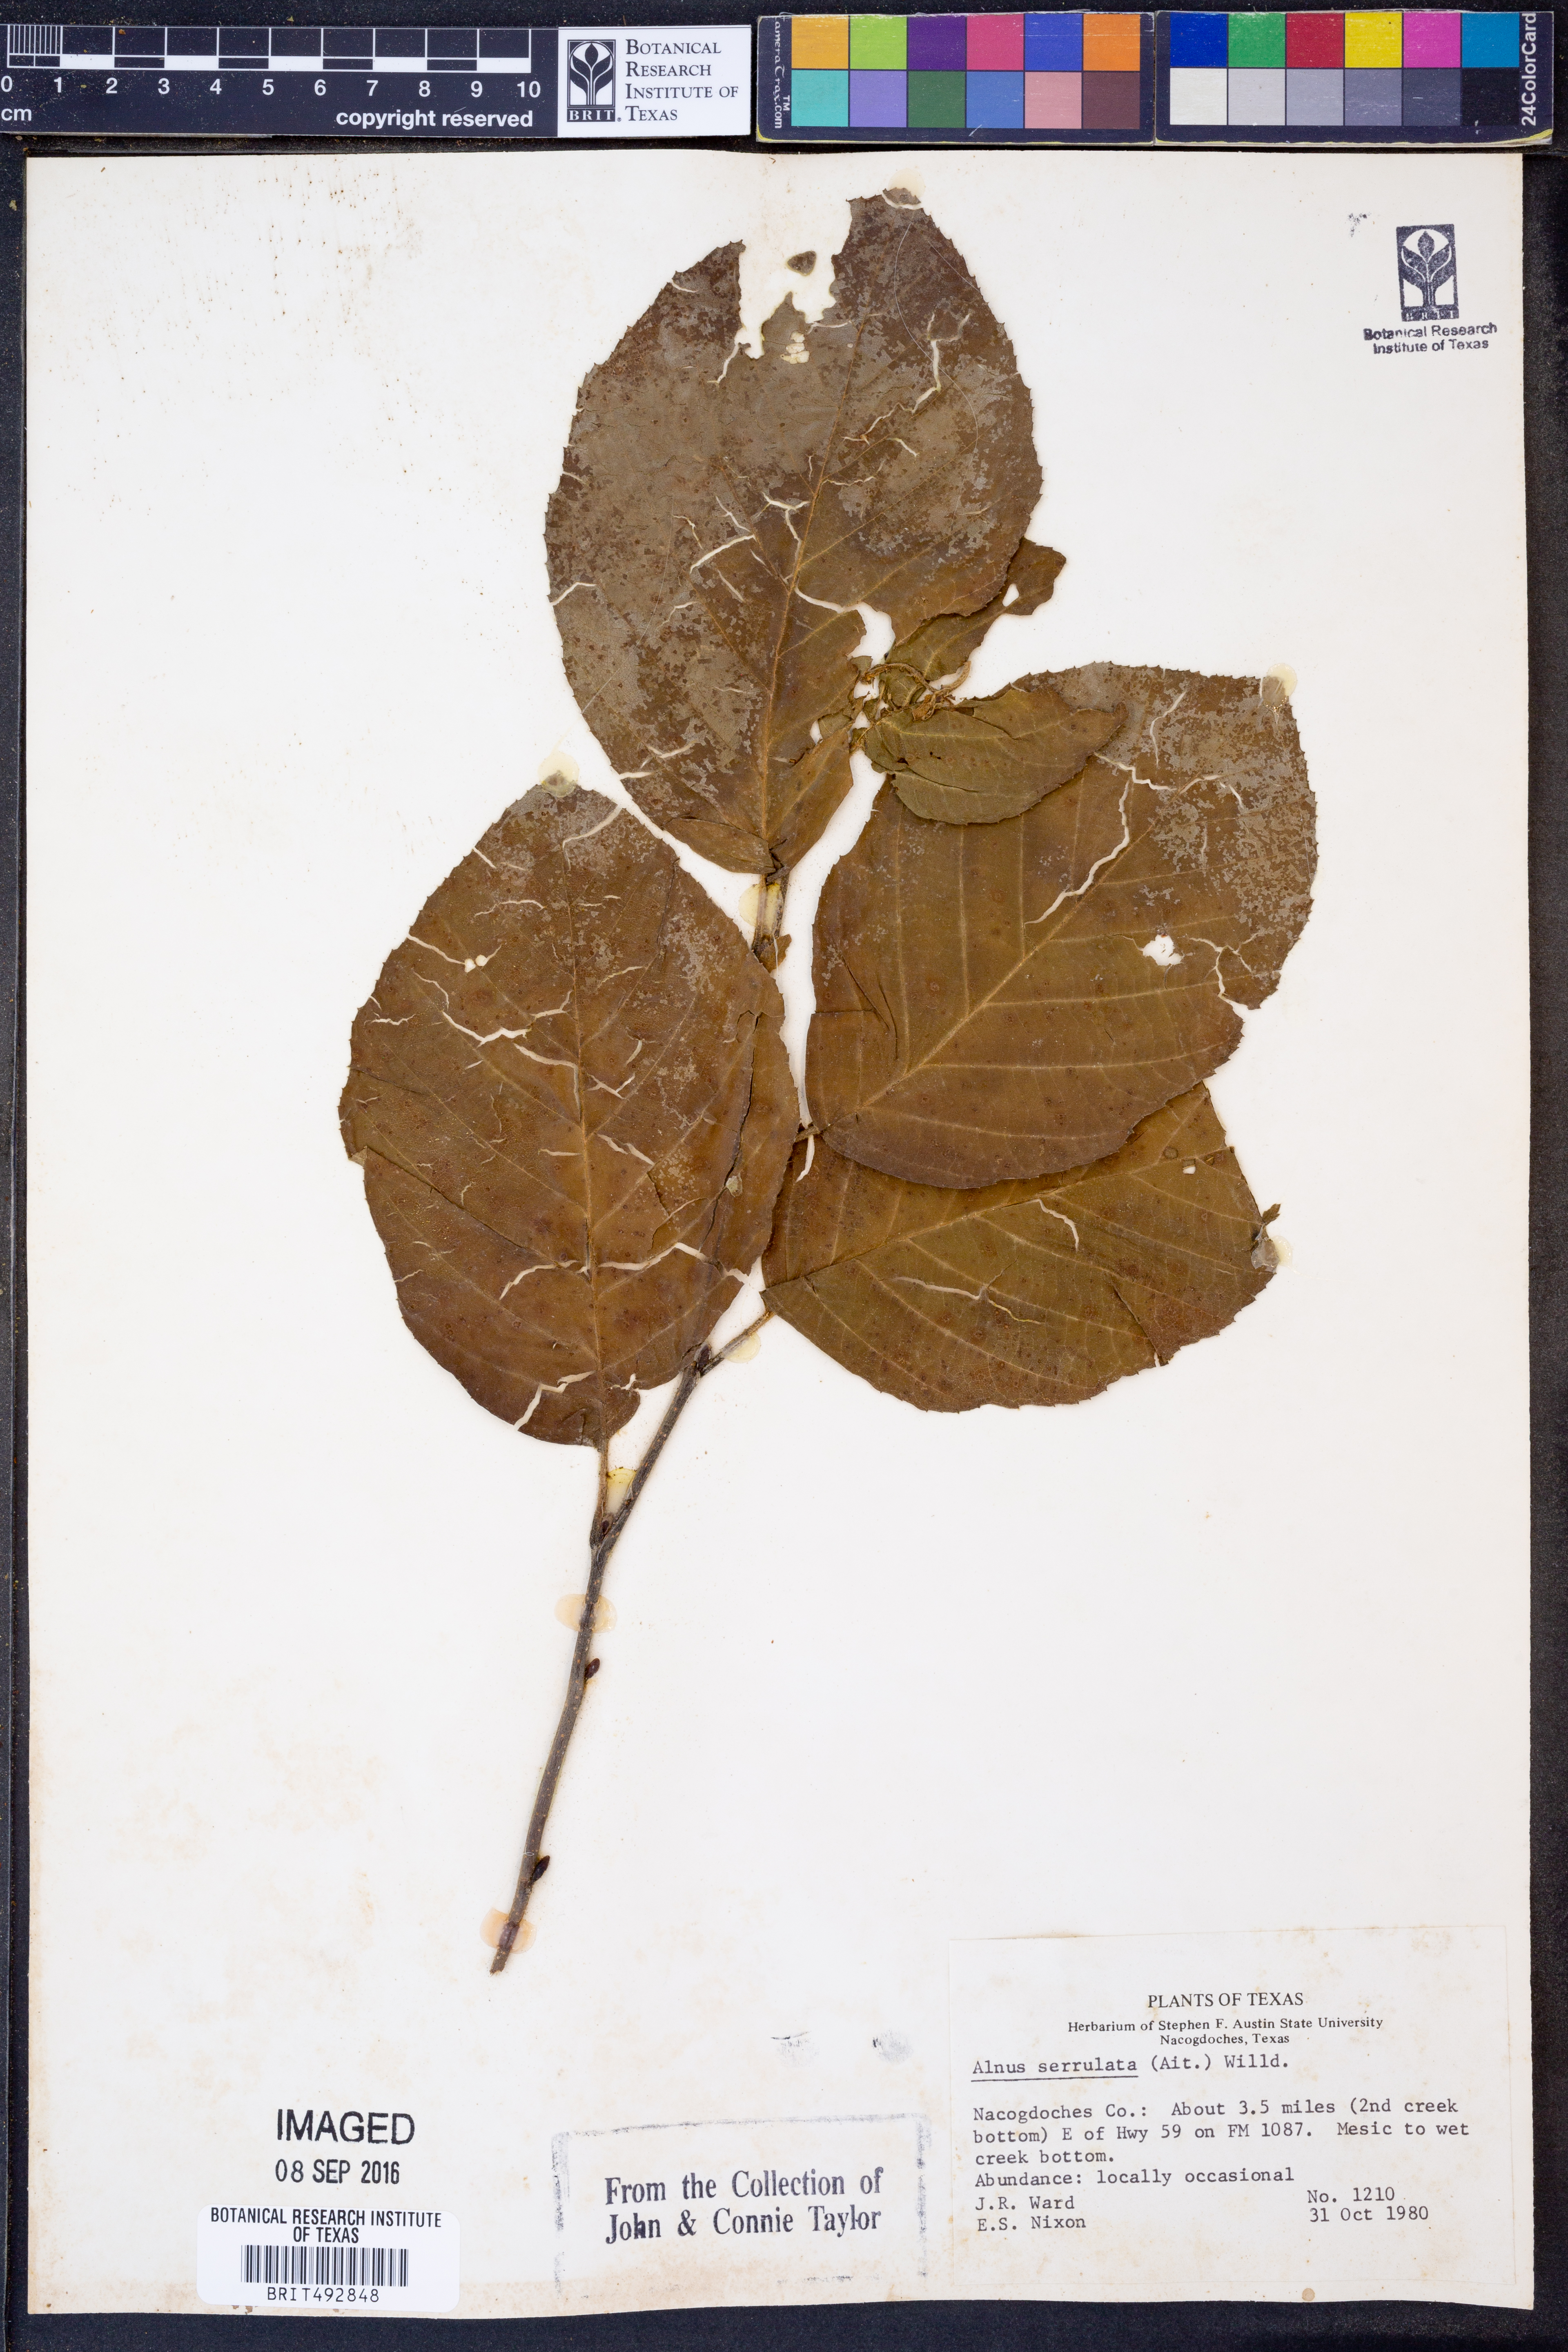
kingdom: Plantae
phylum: Tracheophyta
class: Magnoliopsida
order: Fagales
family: Betulaceae
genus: Alnus
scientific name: Alnus serrulata
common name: Hazel alder
